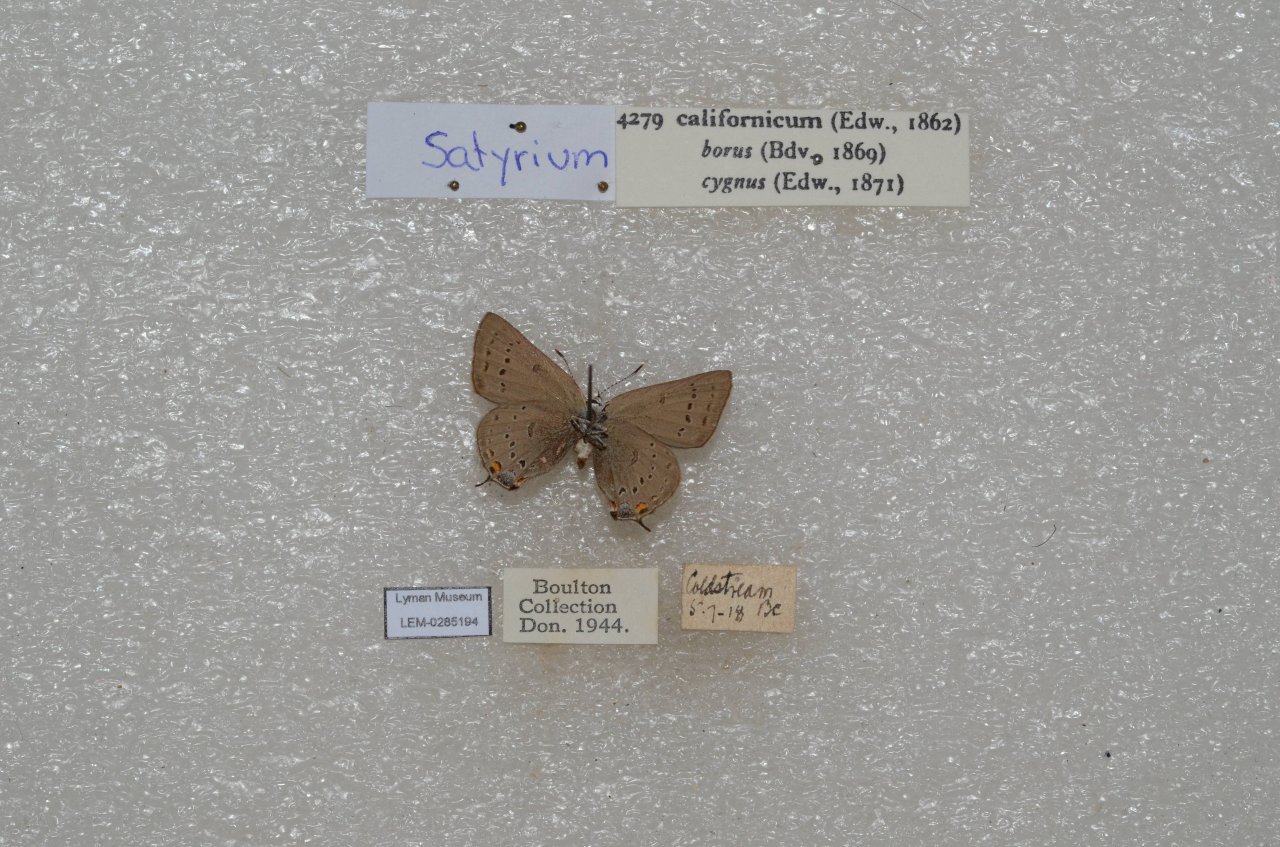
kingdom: Animalia
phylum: Arthropoda
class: Insecta
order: Lepidoptera
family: Lycaenidae
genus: Strymon
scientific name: Strymon acadica
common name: California Hairstreak
